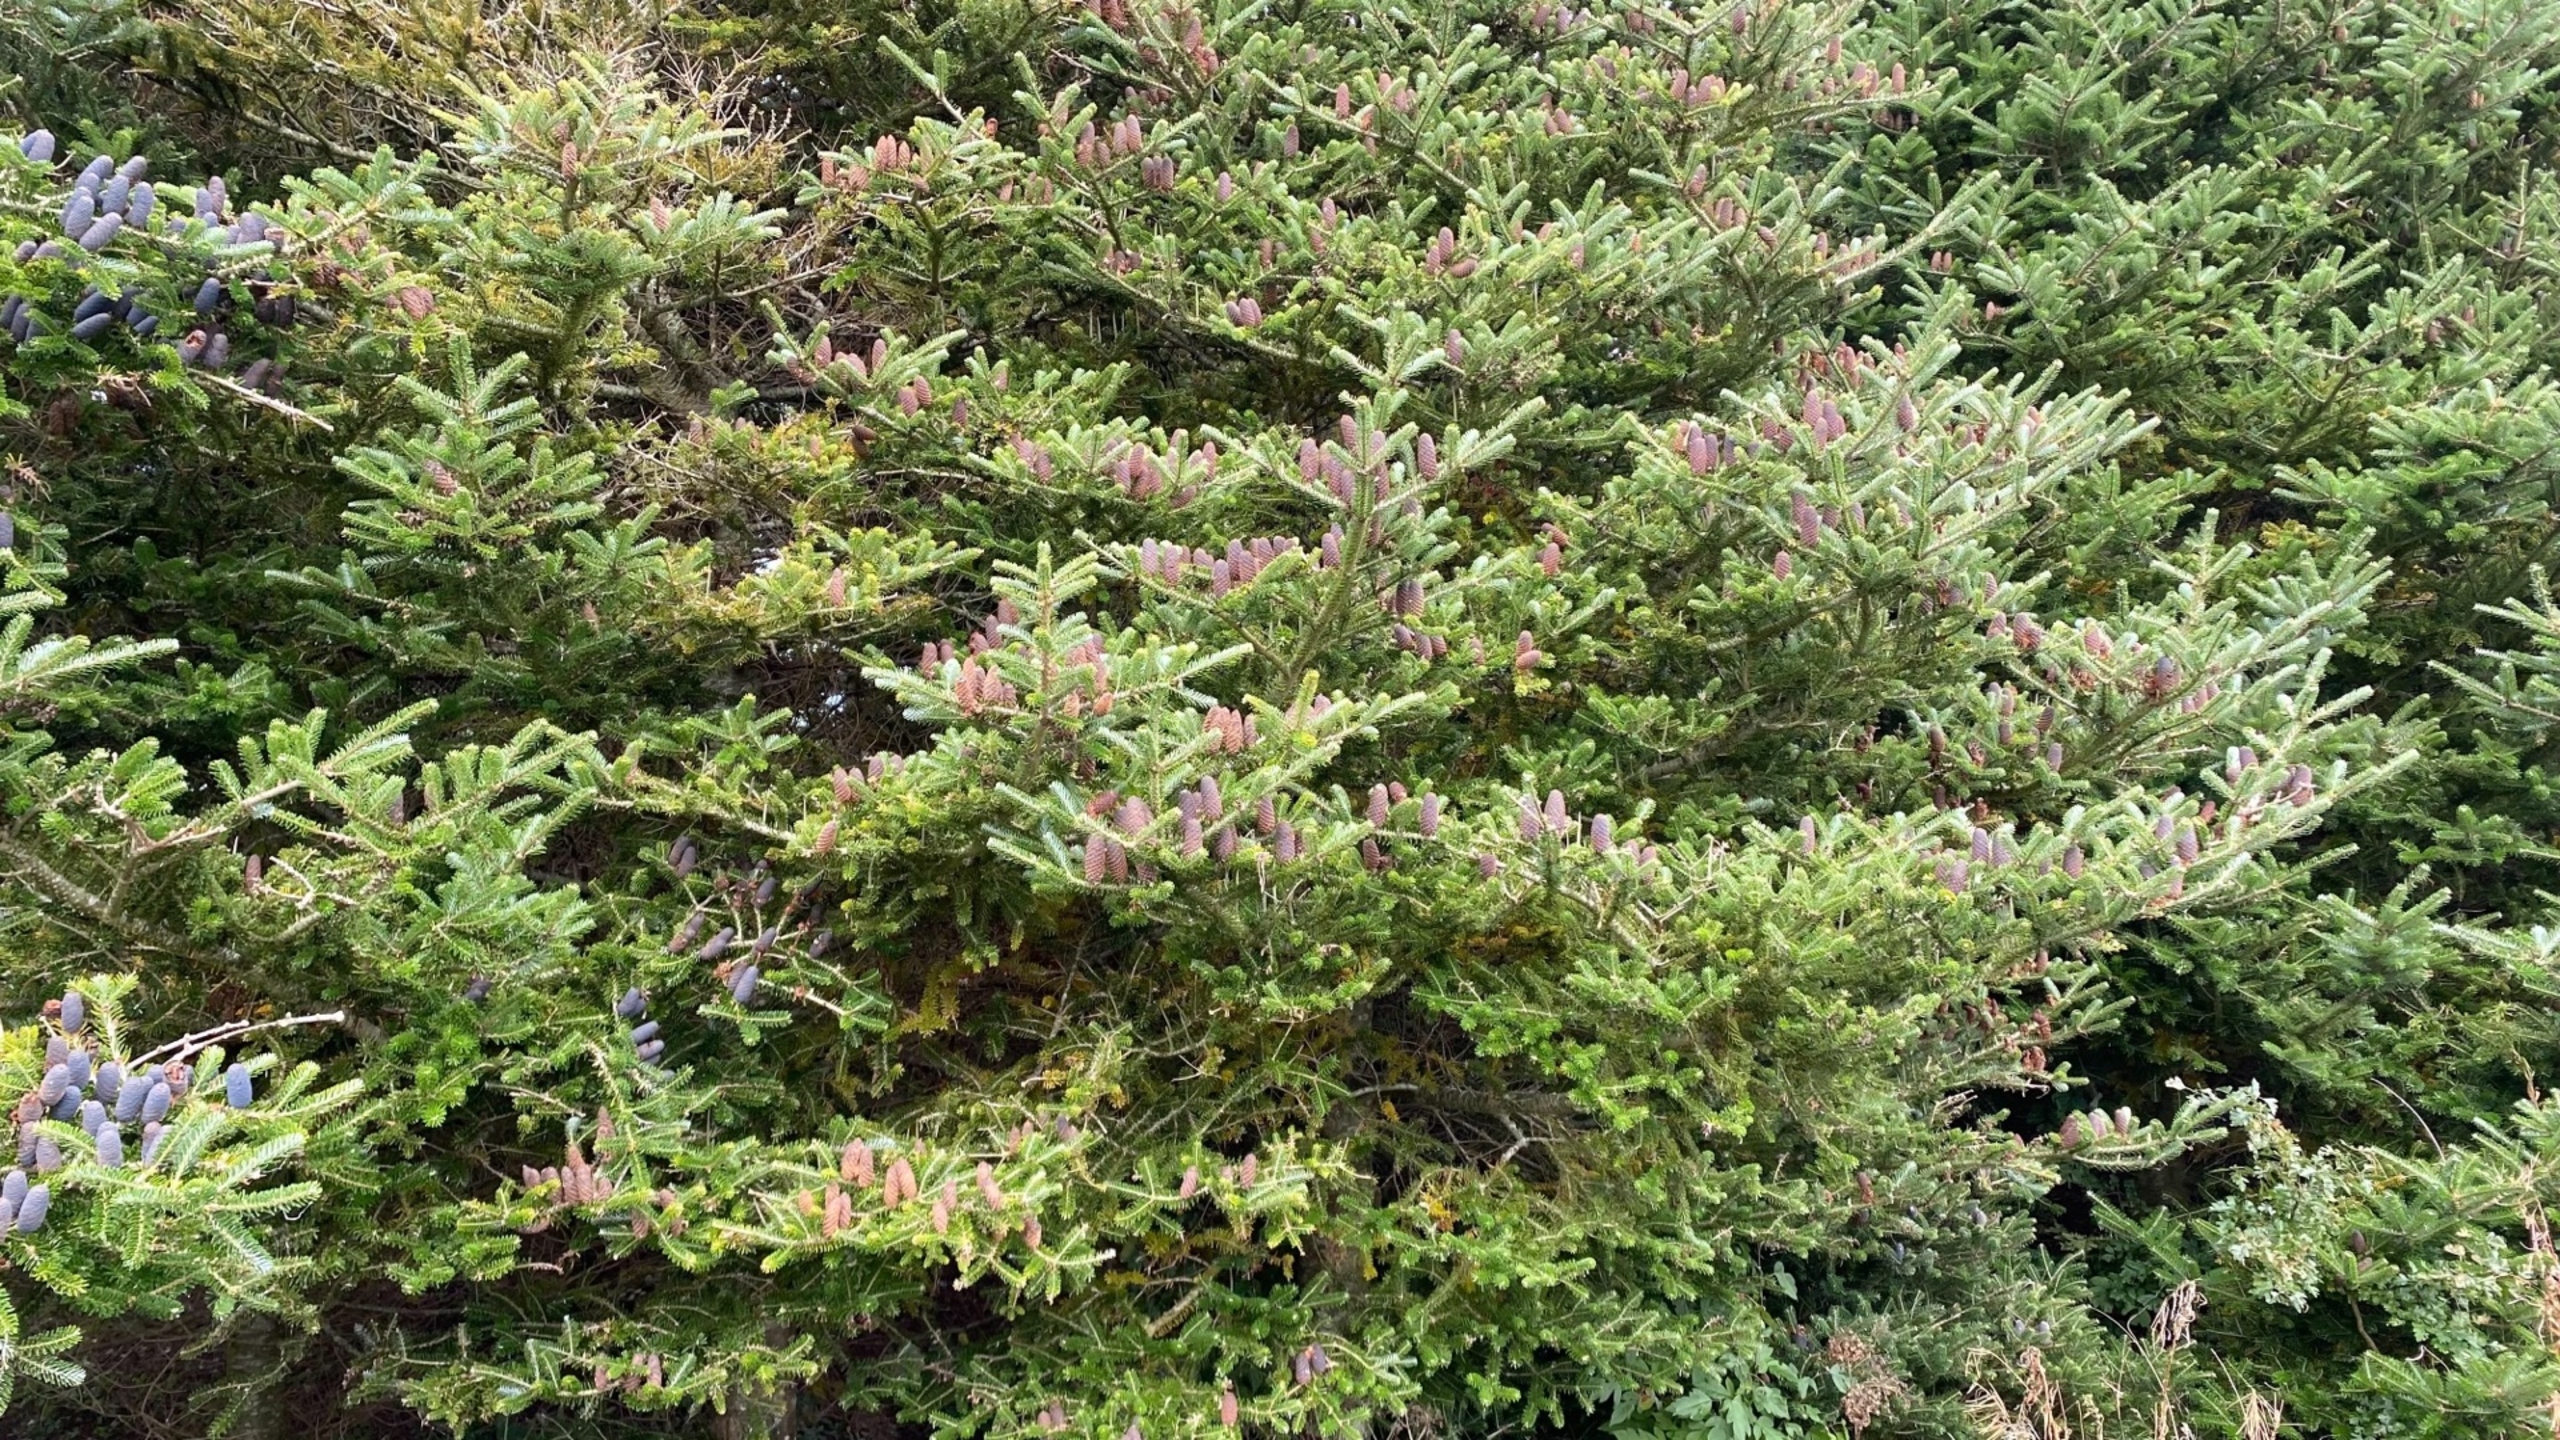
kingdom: Plantae
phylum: Tracheophyta
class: Pinopsida
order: Pinales
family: Pinaceae
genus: Abies
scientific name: Abies koreana
